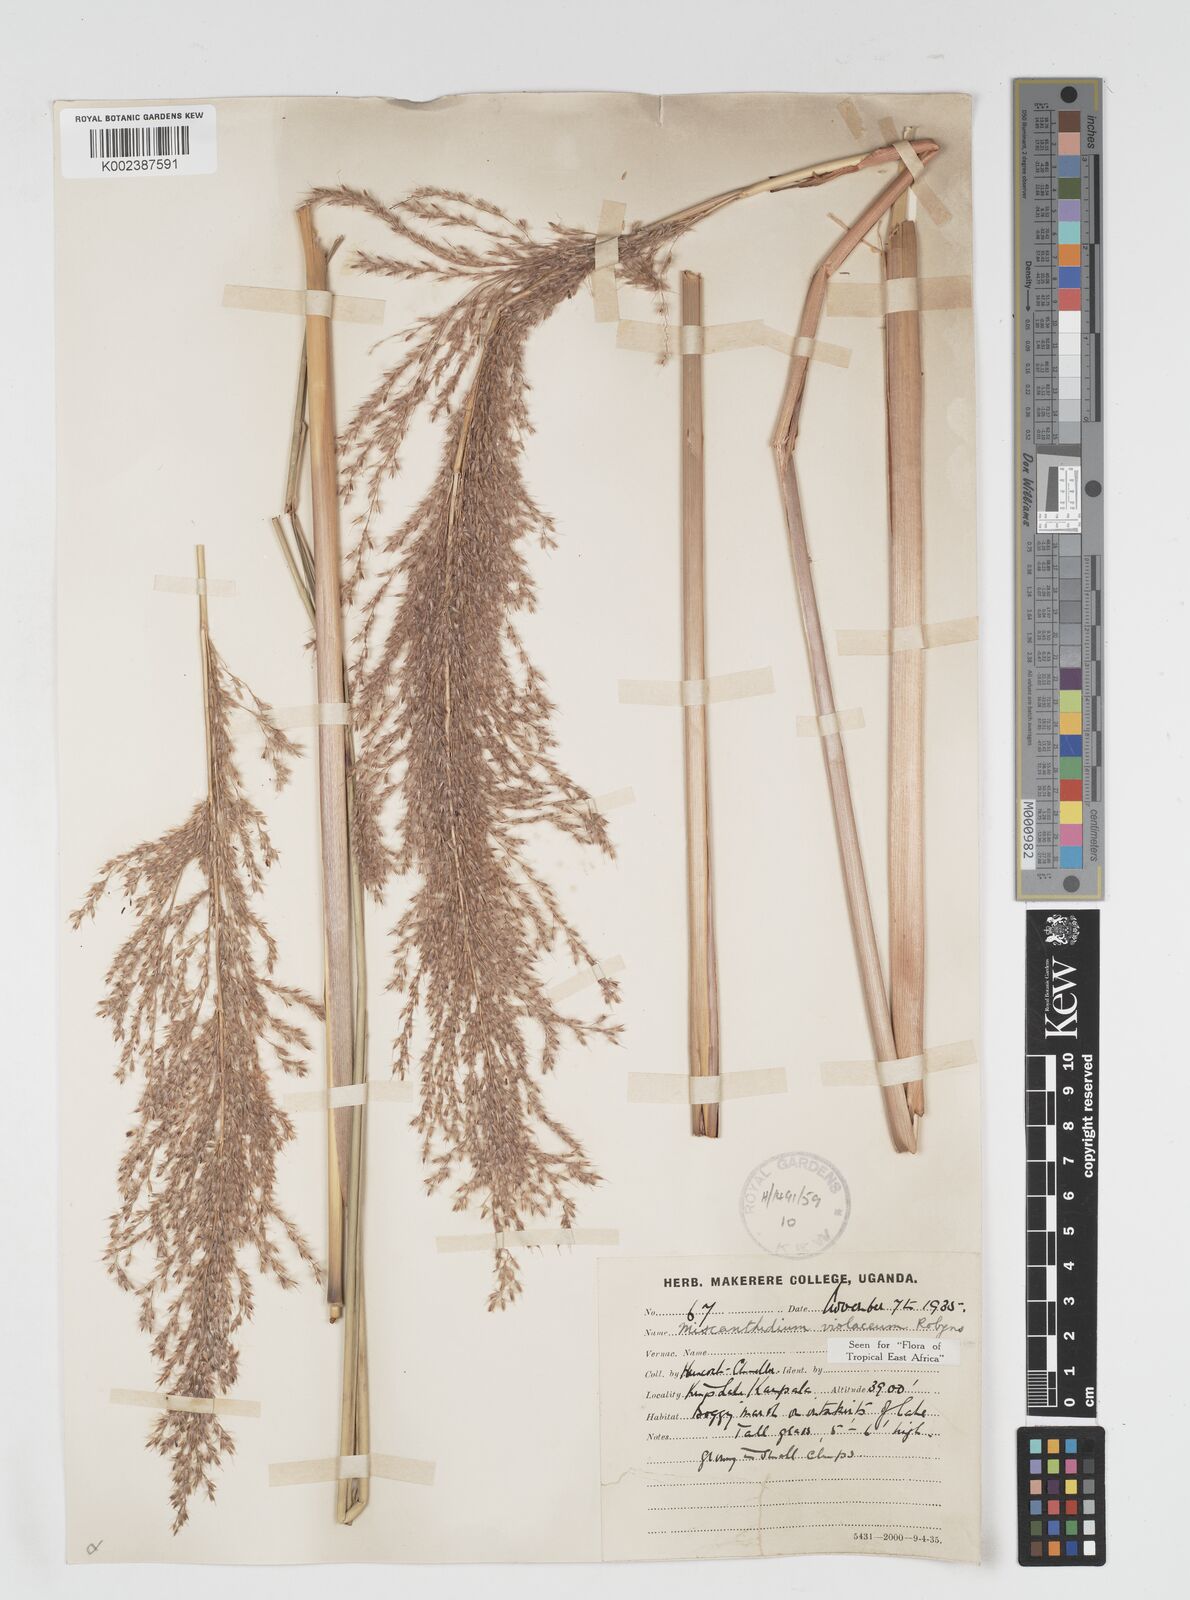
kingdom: Plantae
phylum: Tracheophyta
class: Liliopsida
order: Poales
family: Poaceae
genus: Miscanthidium
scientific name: Miscanthidium violaceum
